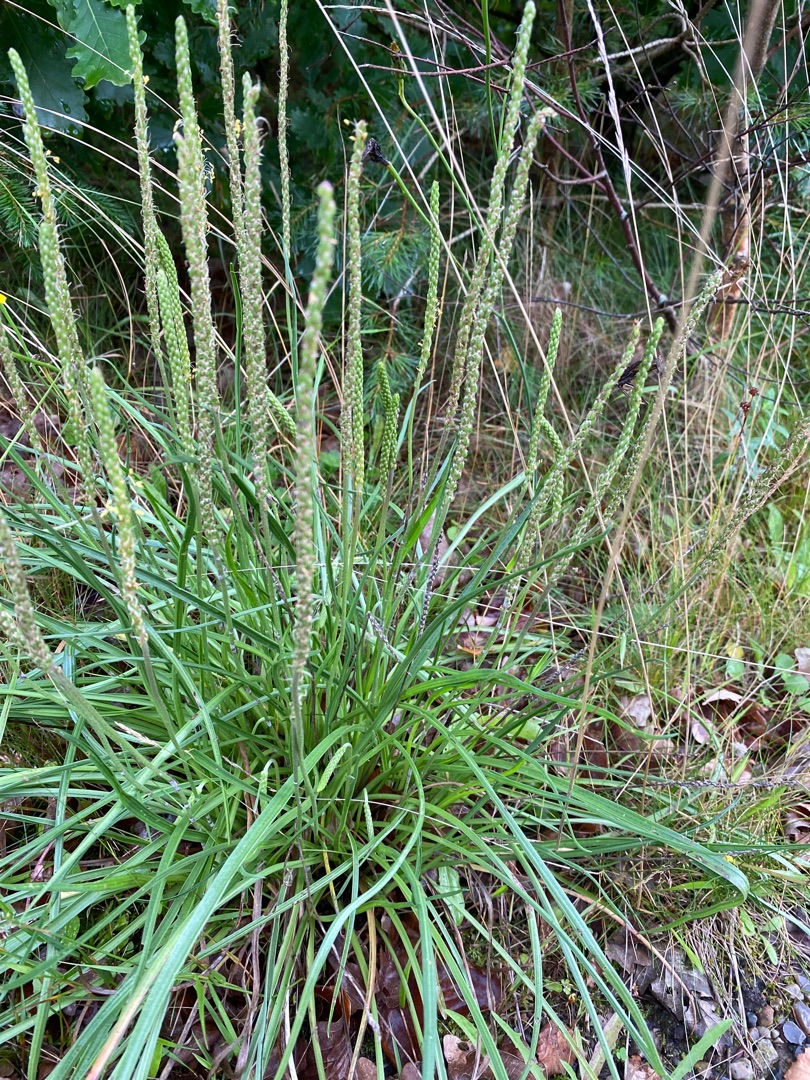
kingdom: Plantae
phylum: Tracheophyta
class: Magnoliopsida
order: Lamiales
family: Plantaginaceae
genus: Plantago
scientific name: Plantago maritima
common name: Strand-vejbred
